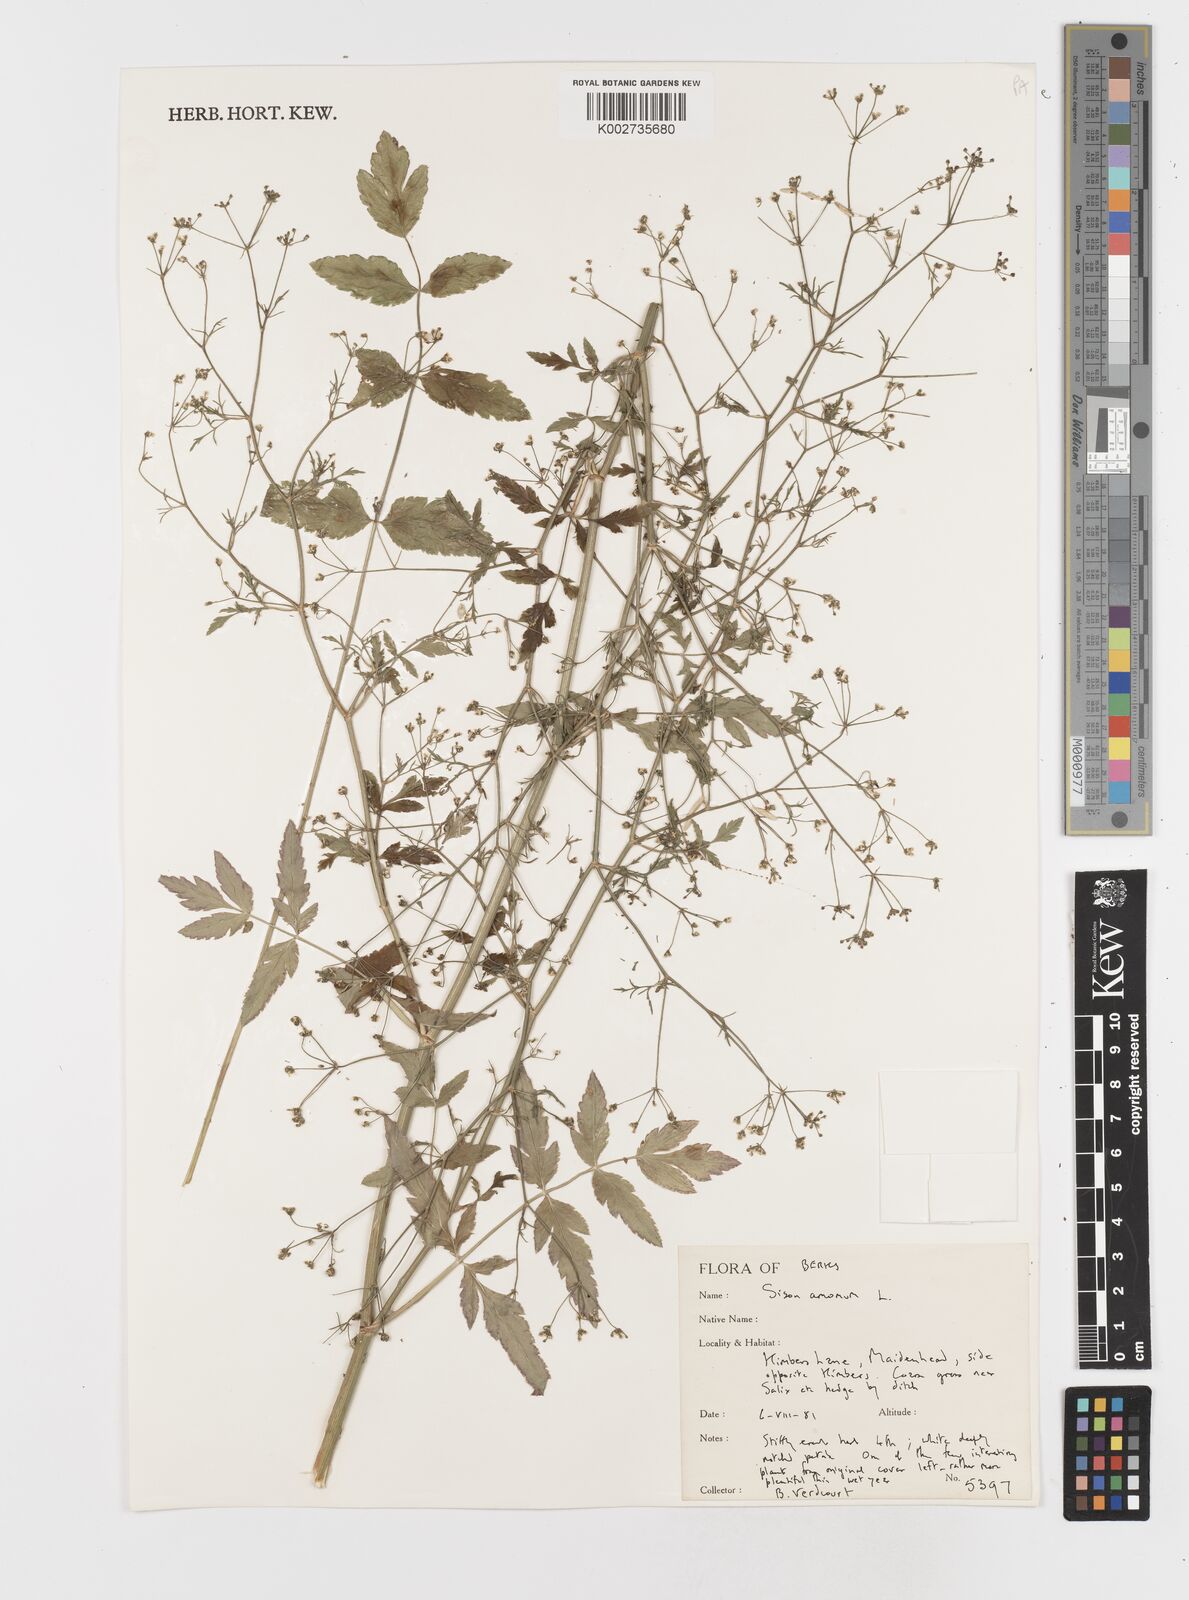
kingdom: Plantae
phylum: Tracheophyta
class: Magnoliopsida
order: Apiales
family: Apiaceae
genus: Sison
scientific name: Sison amomum
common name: Stone-parsley
